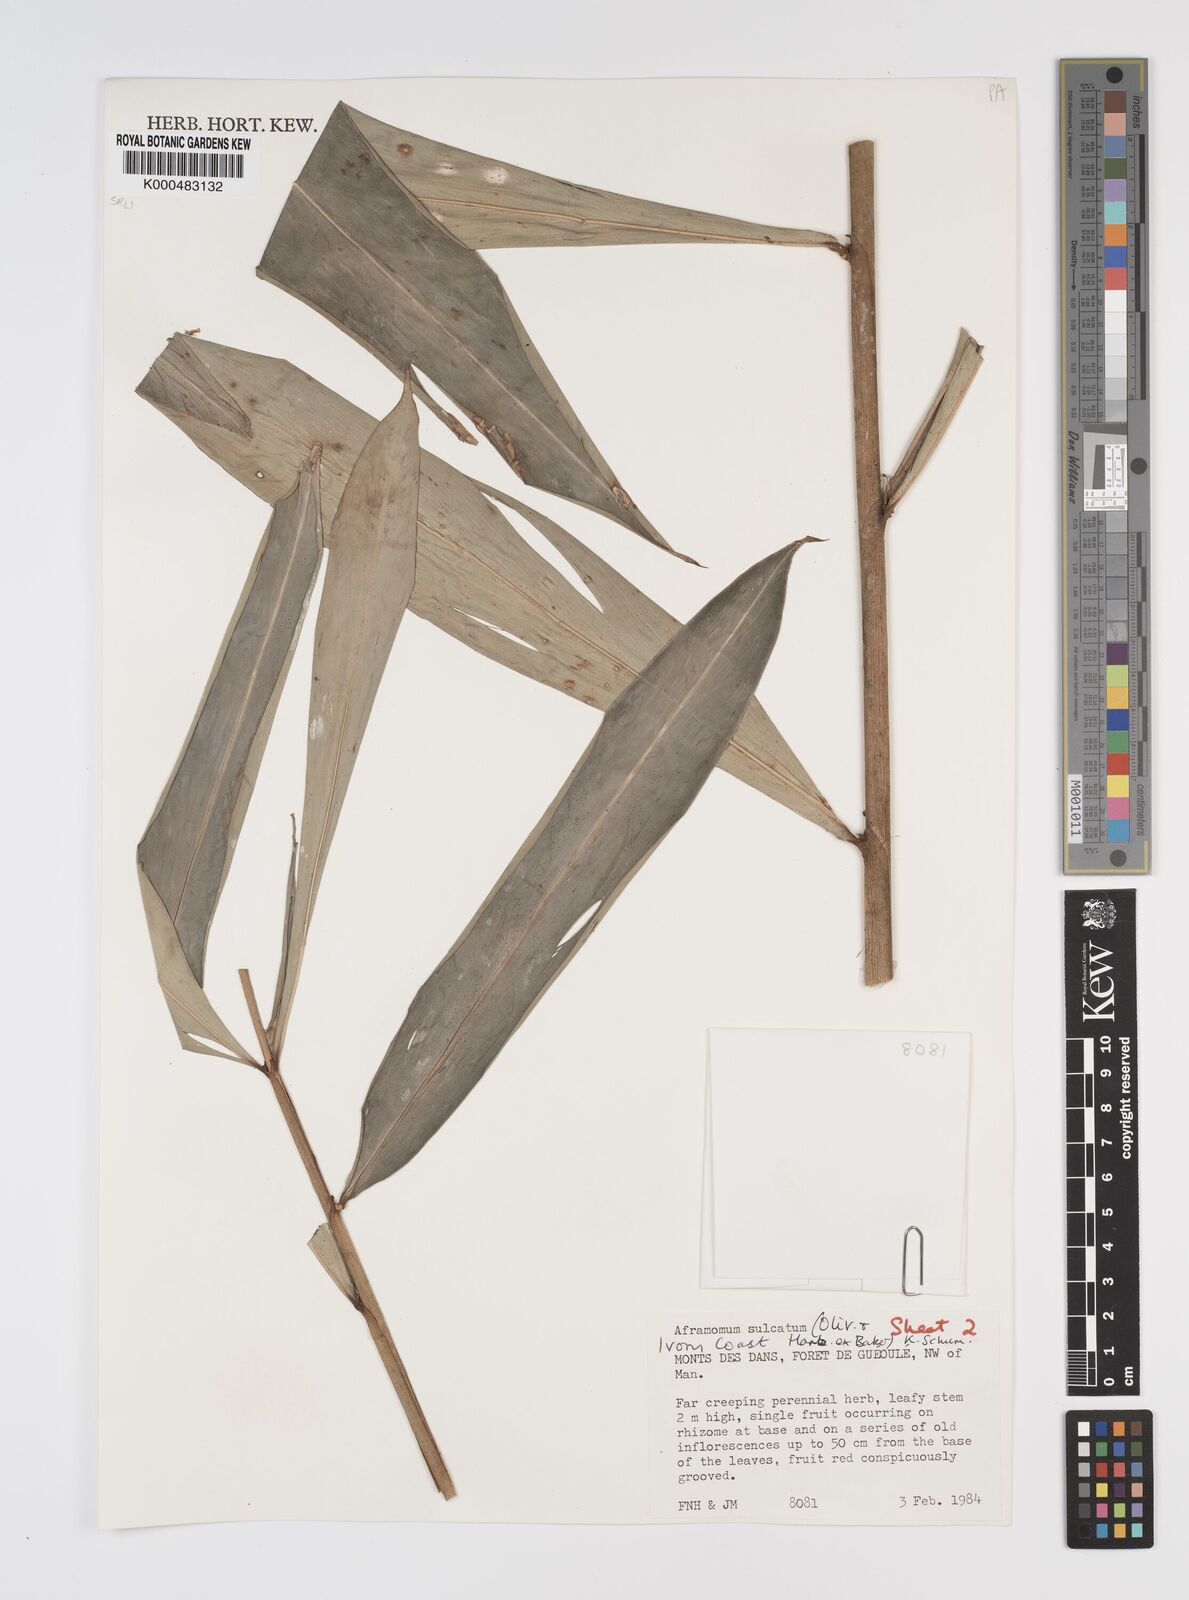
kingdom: Plantae
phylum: Tracheophyta
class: Liliopsida
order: Zingiberales
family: Zingiberaceae
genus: Aframomum
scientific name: Aframomum sulcatum
